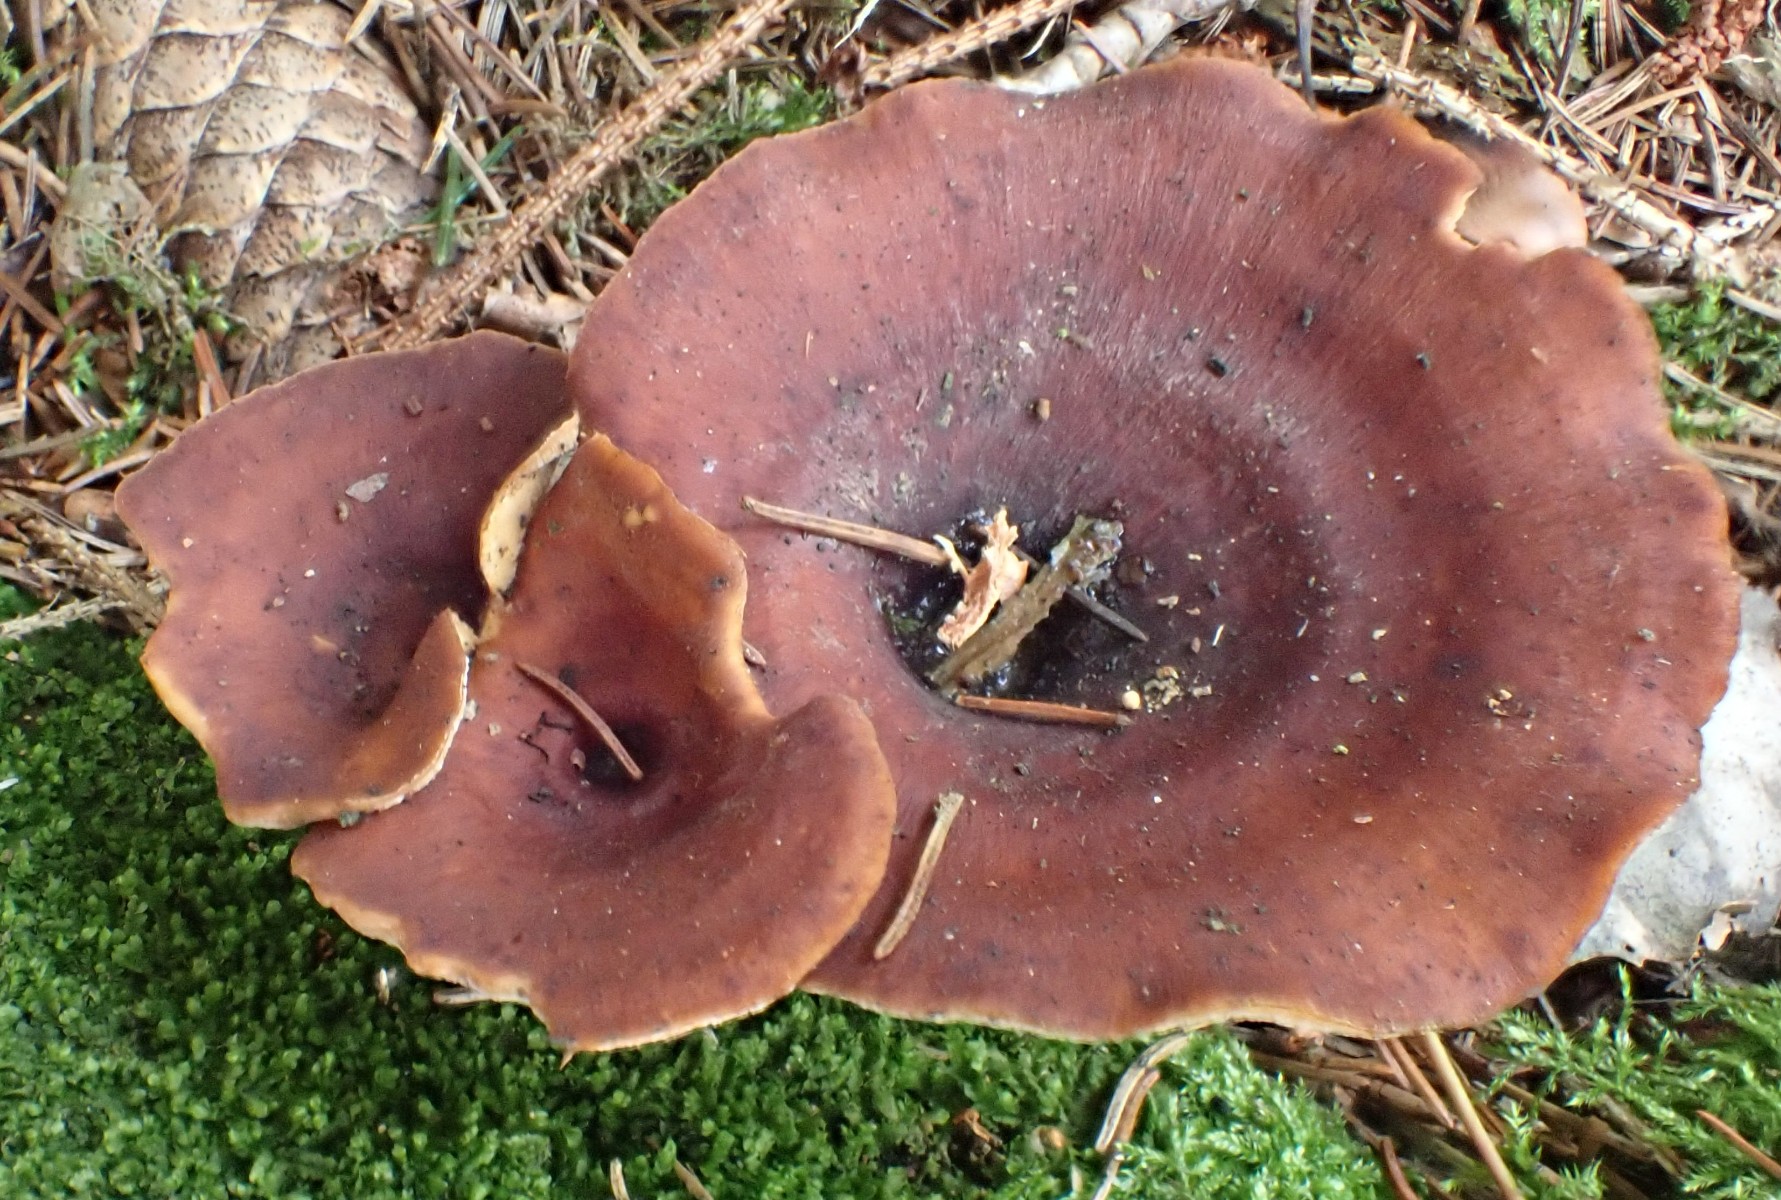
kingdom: Fungi
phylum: Basidiomycota
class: Agaricomycetes
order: Polyporales
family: Polyporaceae
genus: Picipes
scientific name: Picipes tubaeformis
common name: trompet-stilkporesvamp
